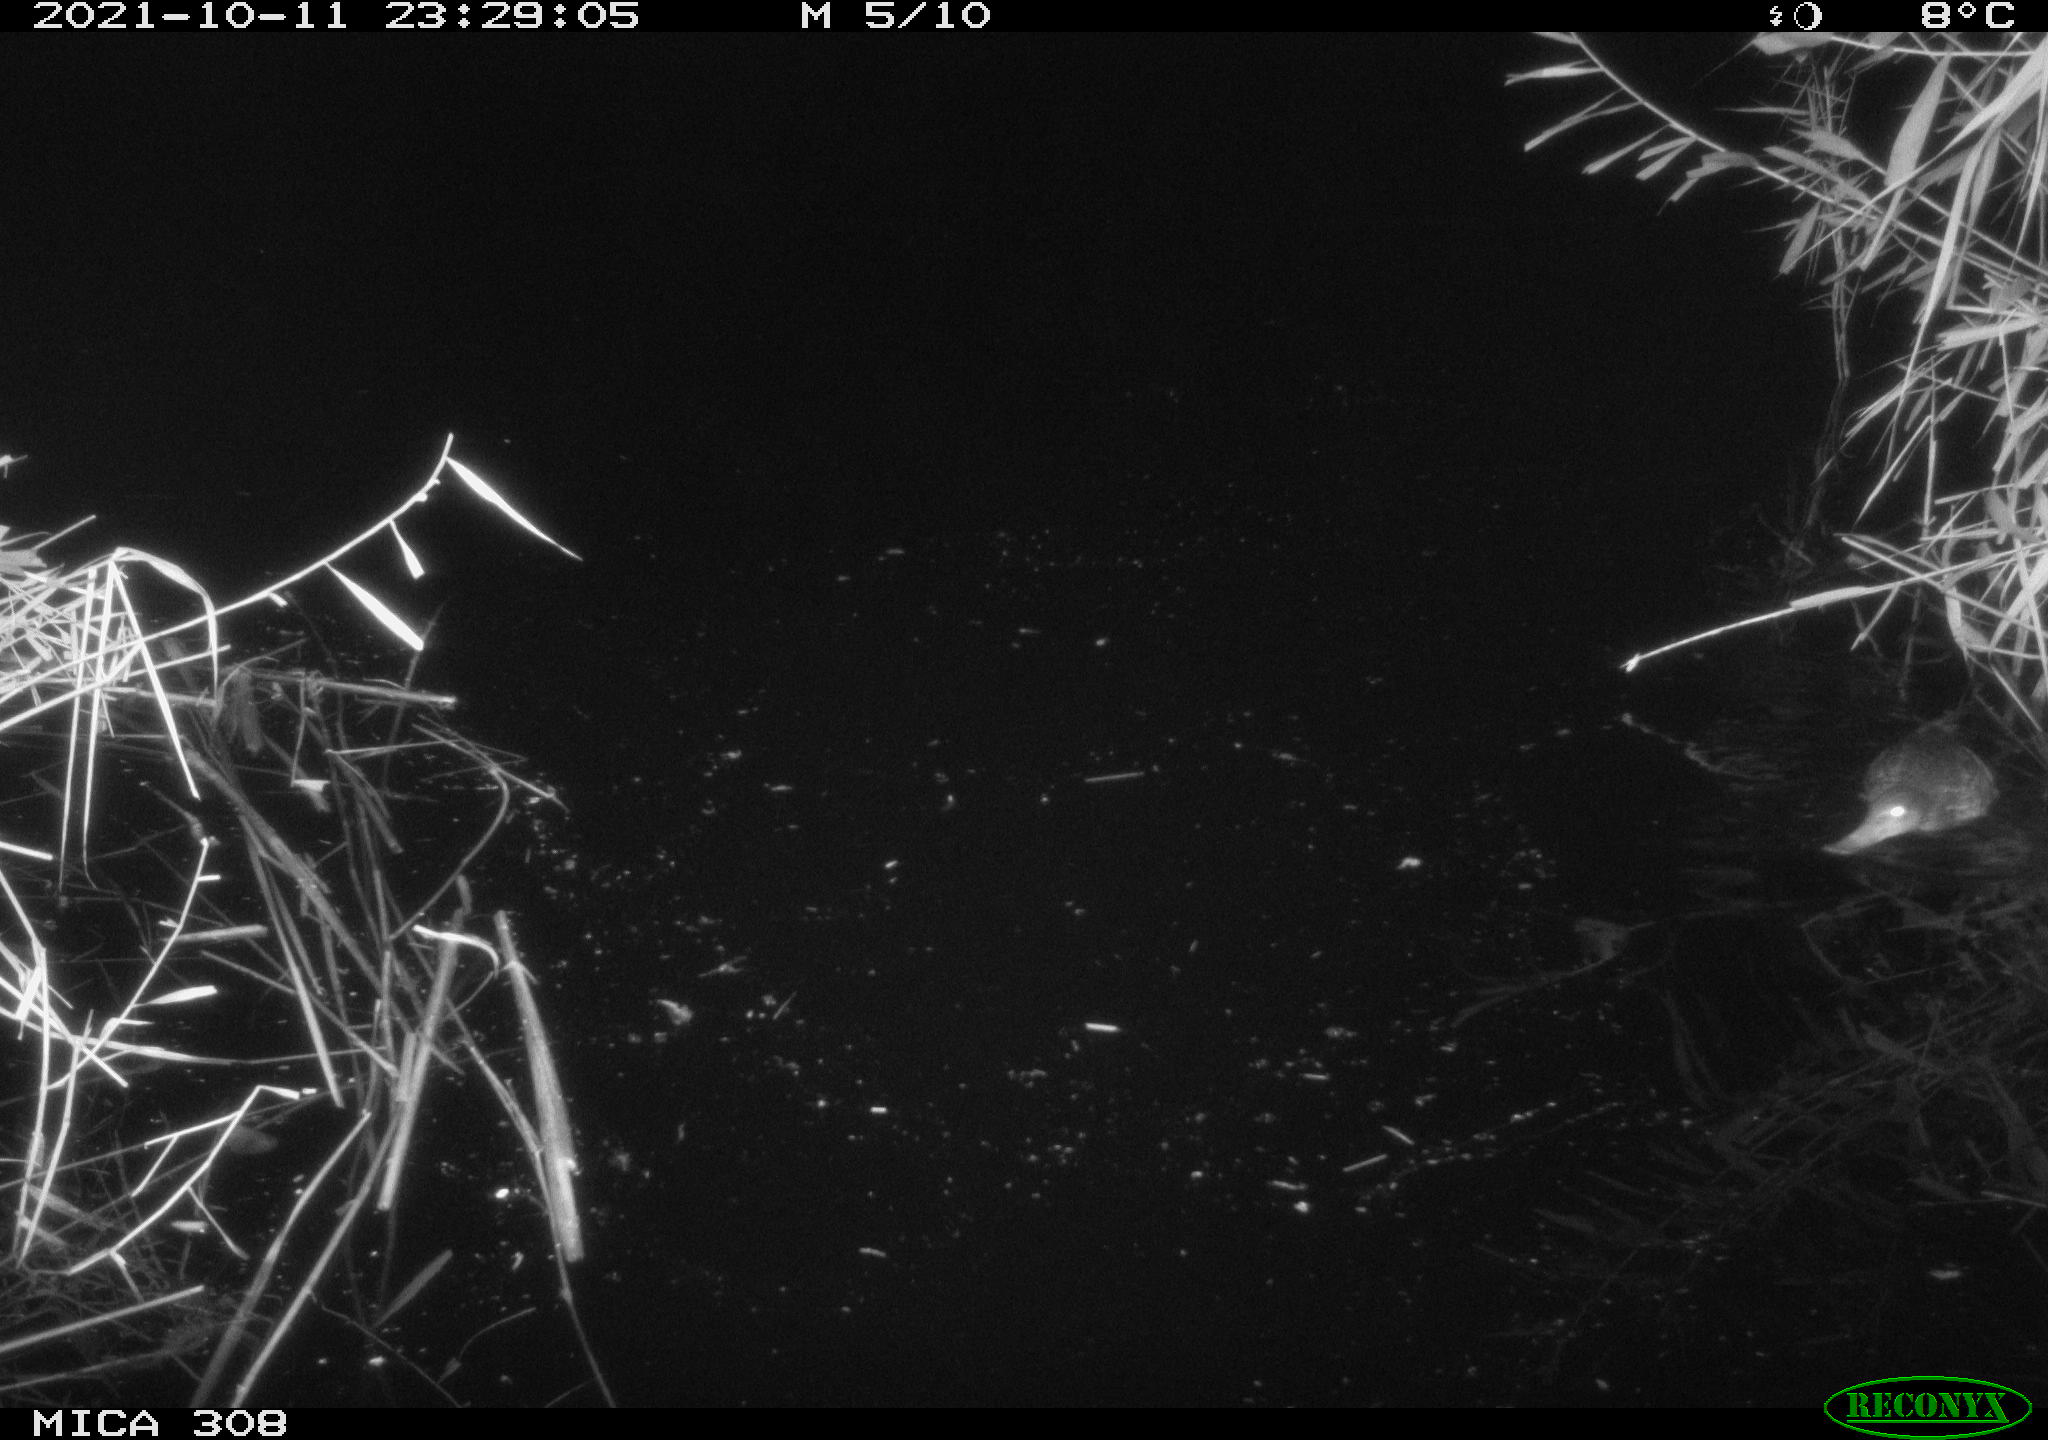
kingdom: Animalia
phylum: Chordata
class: Aves
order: Anseriformes
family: Anatidae
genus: Spatula
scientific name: Spatula clypeata
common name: Northern shoveler
